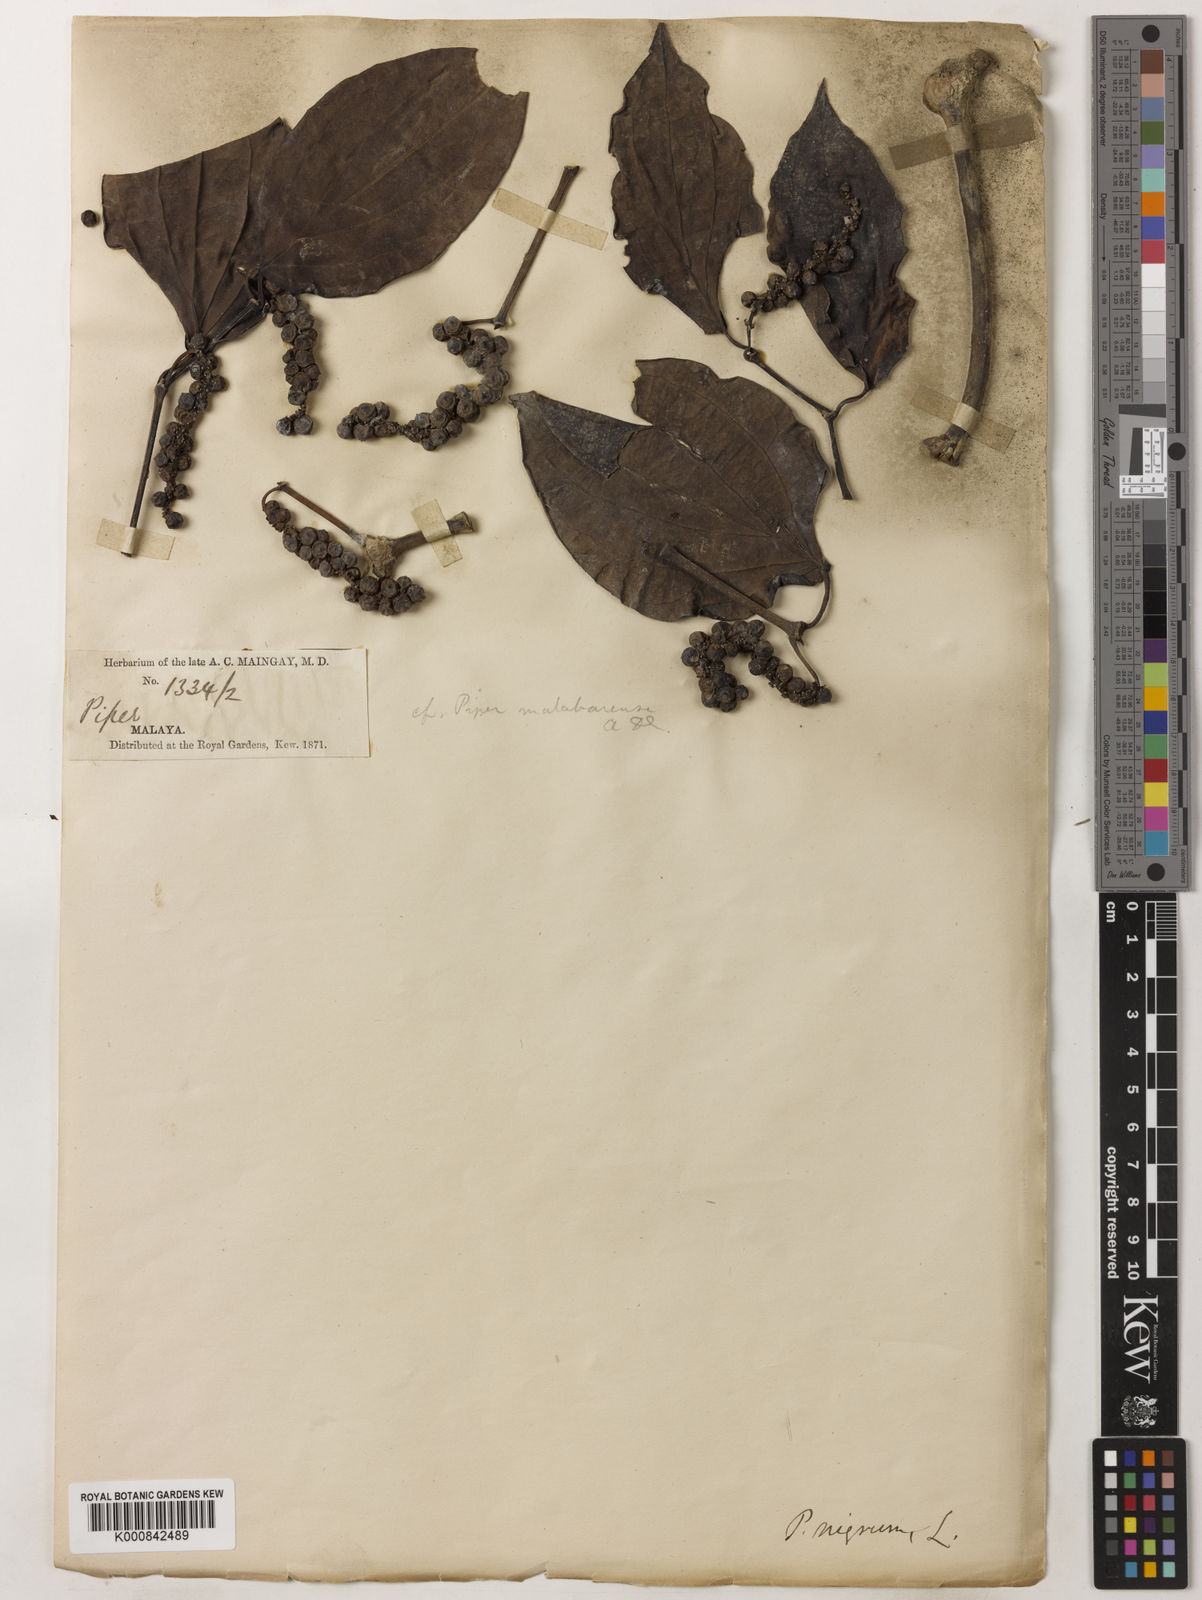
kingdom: Plantae
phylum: Tracheophyta
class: Magnoliopsida
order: Piperales
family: Piperaceae
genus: Piper
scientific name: Piper nigrum
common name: Black pepper
